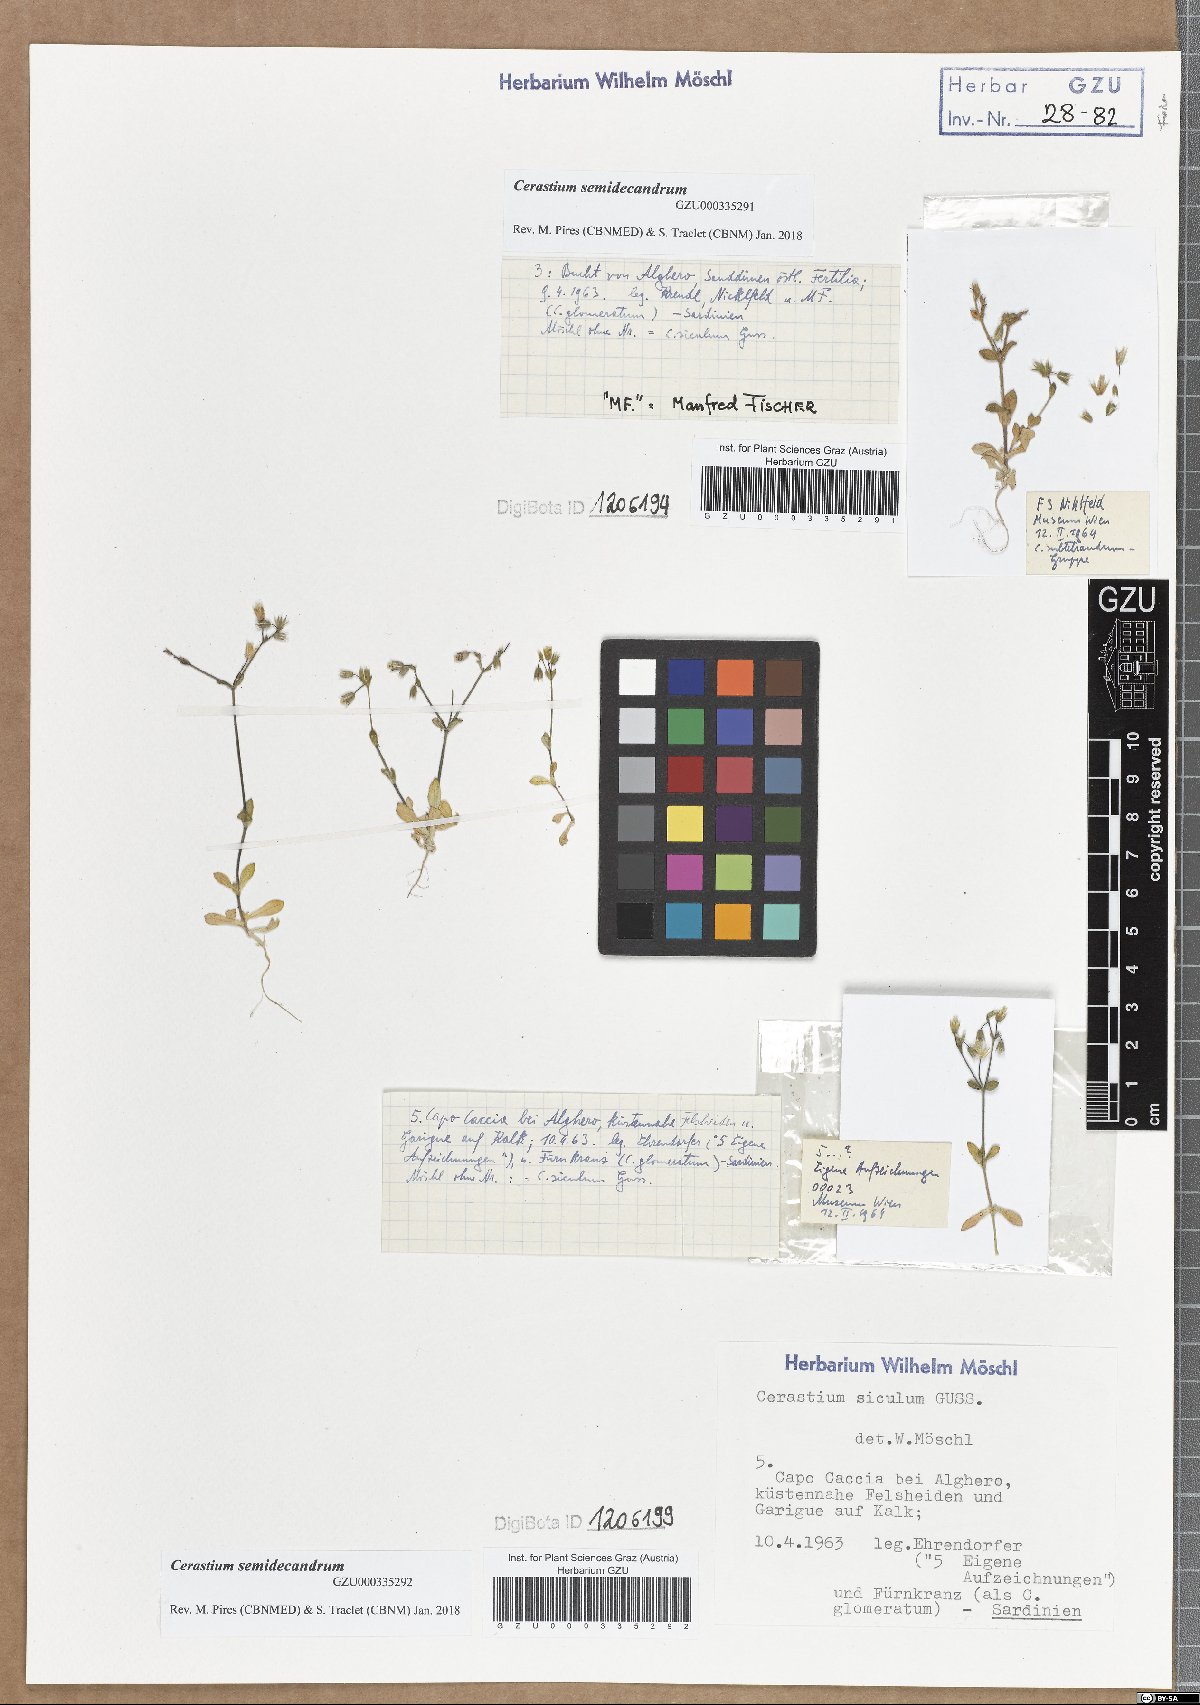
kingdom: Plantae
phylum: Tracheophyta
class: Magnoliopsida
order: Caryophyllales
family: Caryophyllaceae
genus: Cerastium
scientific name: Cerastium semidecandrum
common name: Little mouse-ear
